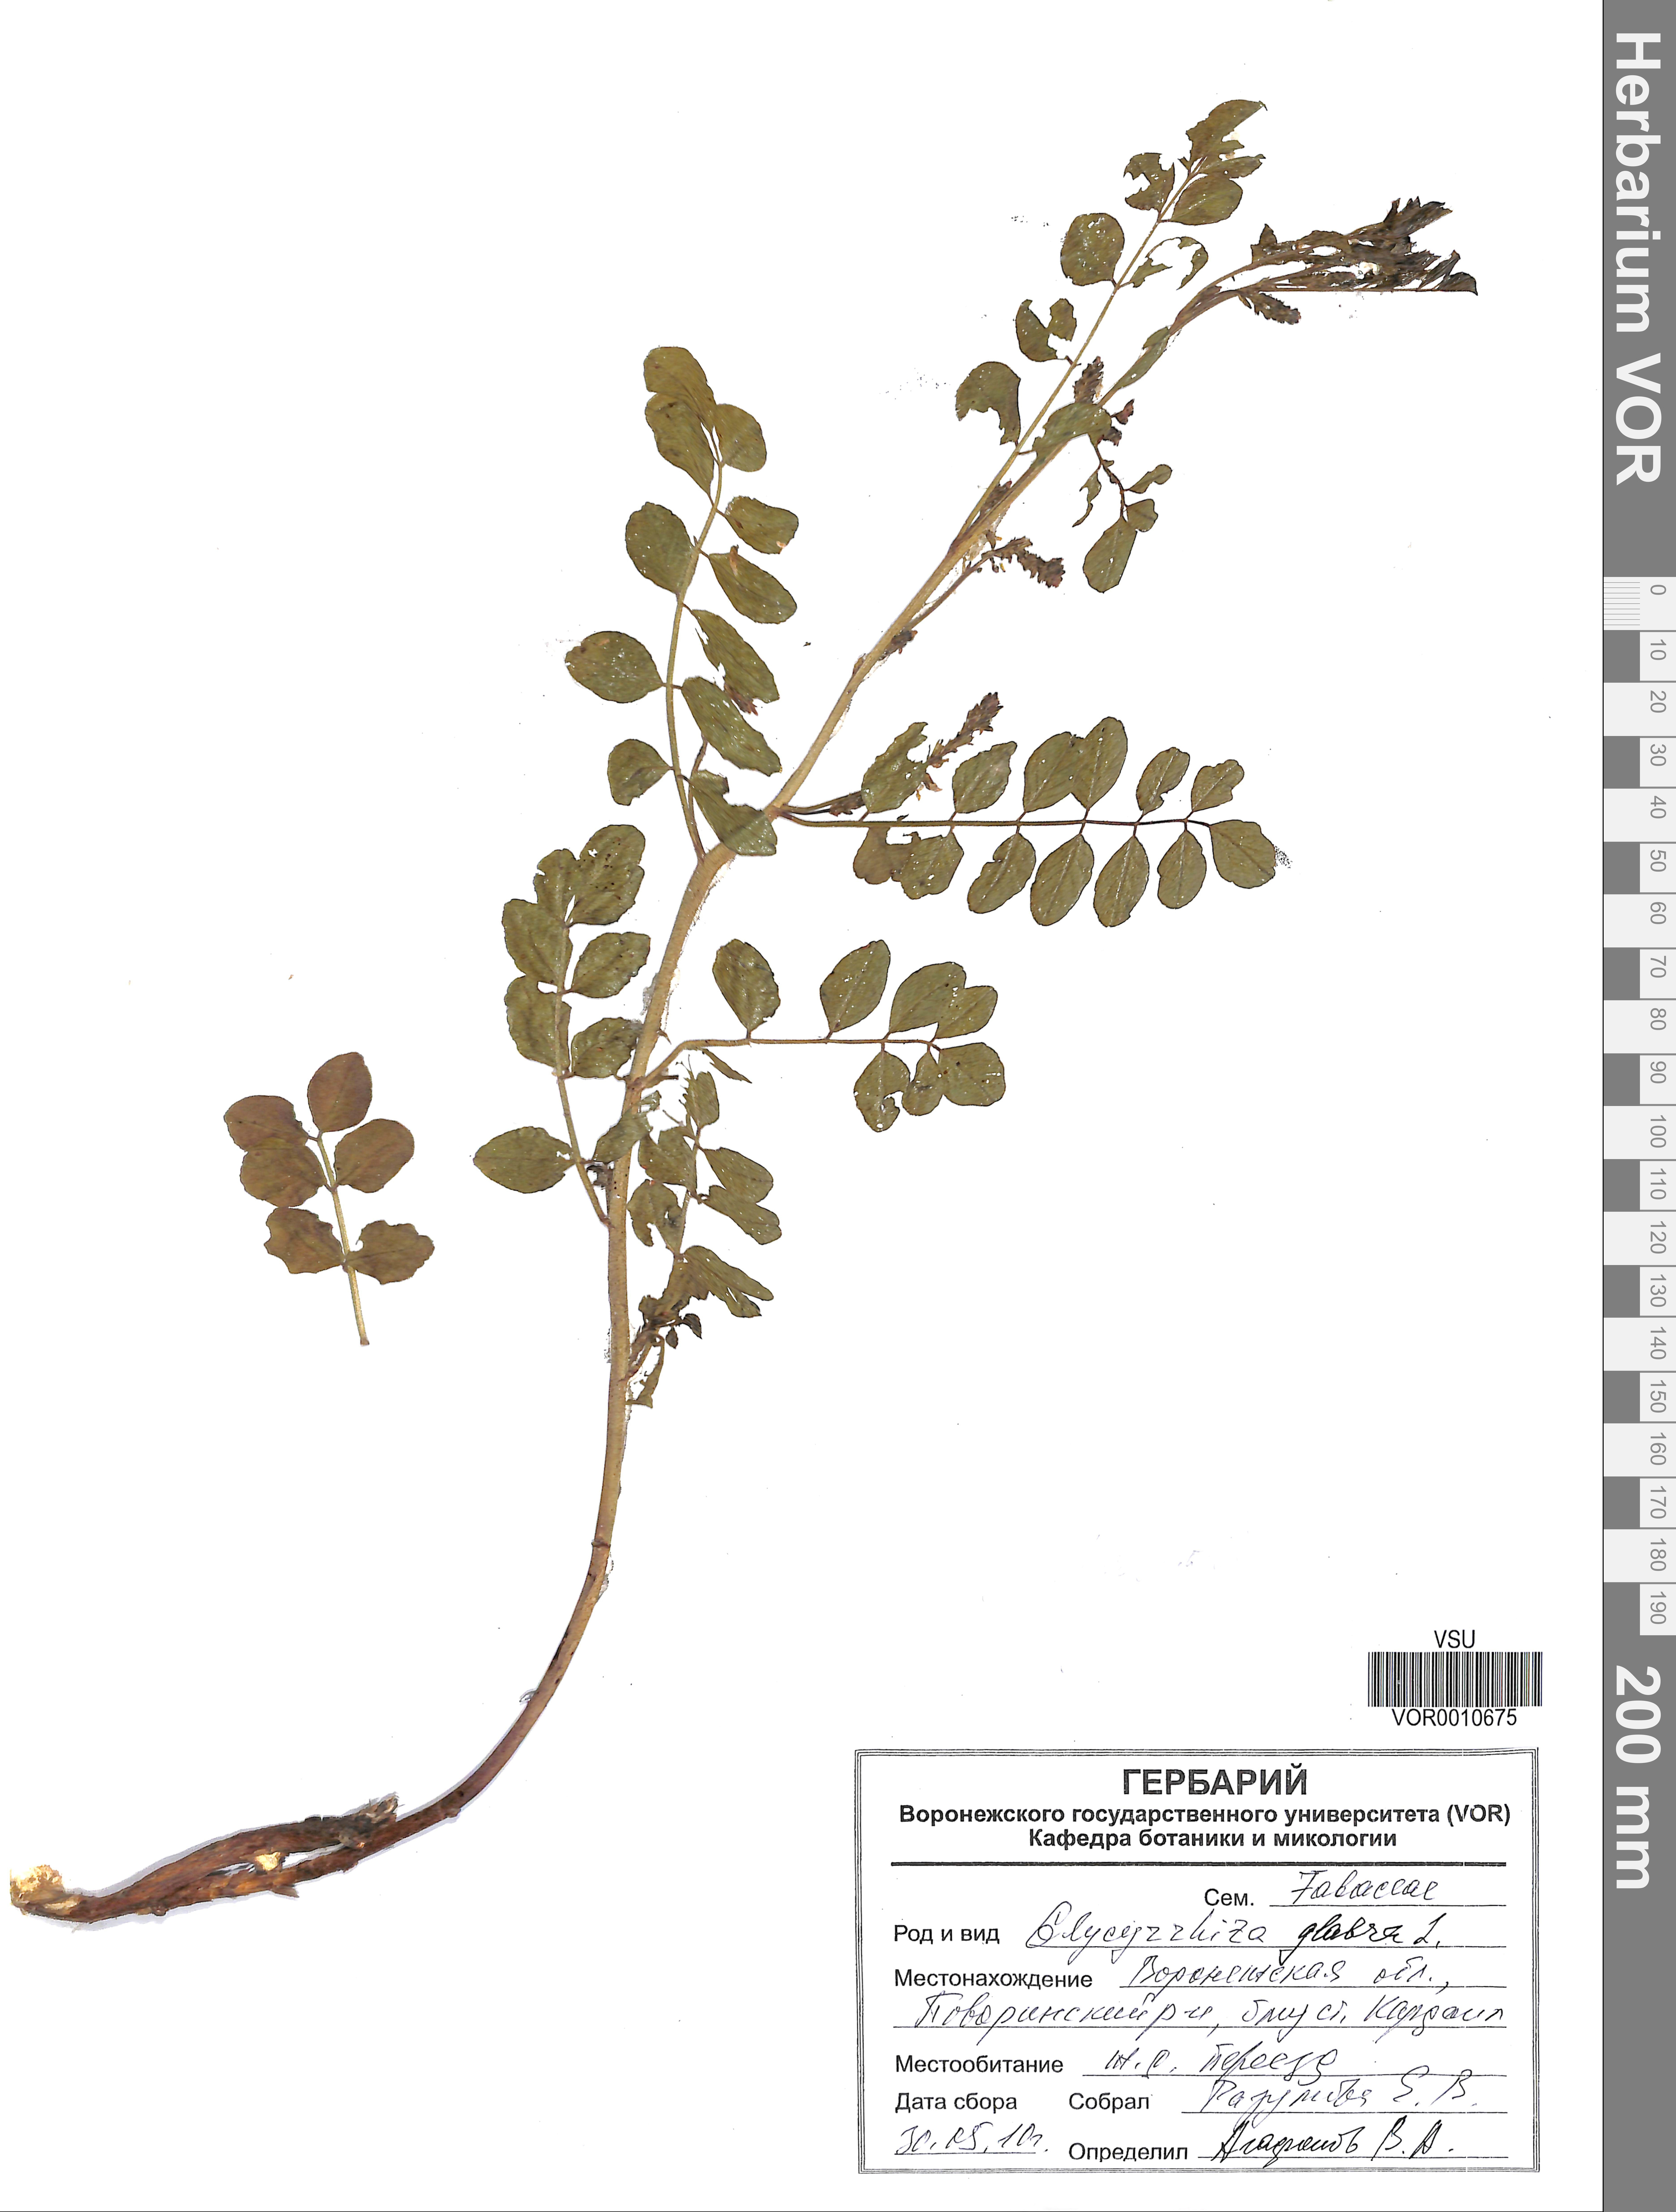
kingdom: Plantae
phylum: Tracheophyta
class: Magnoliopsida
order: Fabales
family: Fabaceae
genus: Glycyrrhiza
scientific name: Glycyrrhiza glabra
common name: Liquorice
